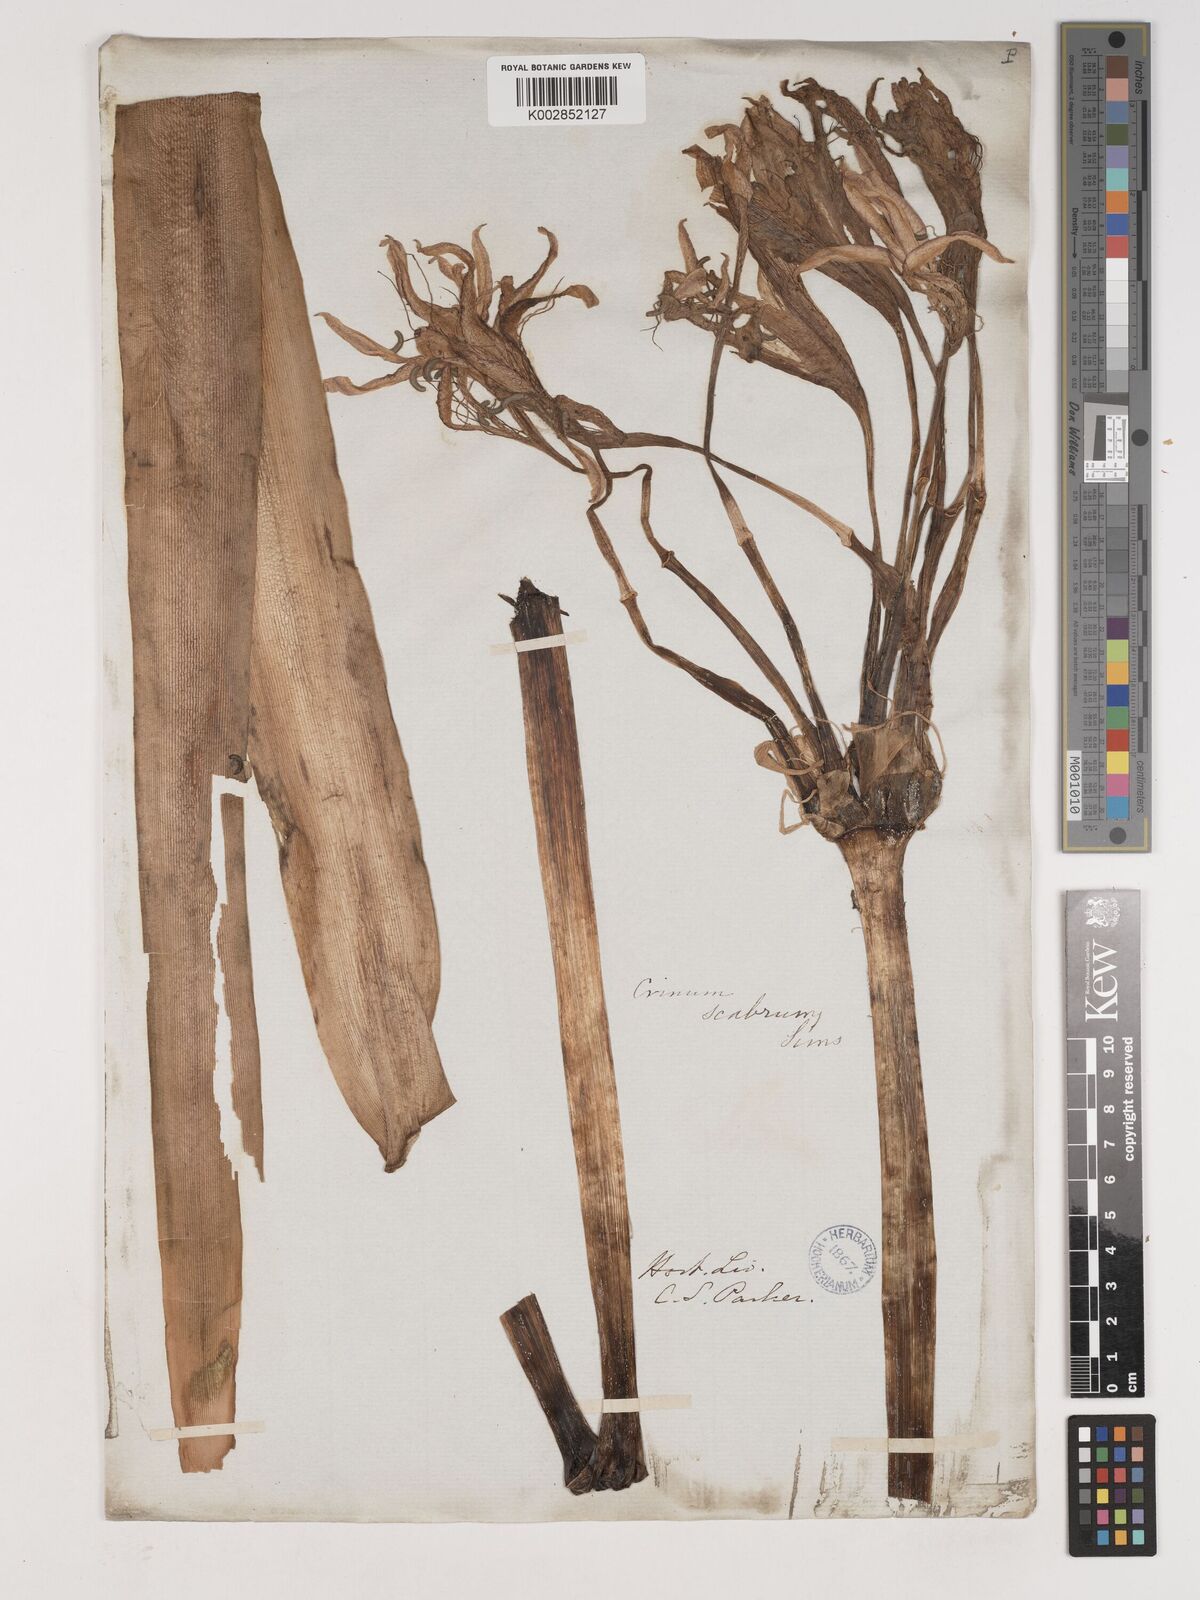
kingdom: Plantae
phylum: Tracheophyta
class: Liliopsida
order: Asparagales
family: Amaryllidaceae
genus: Crinum
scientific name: Crinum latifolium
